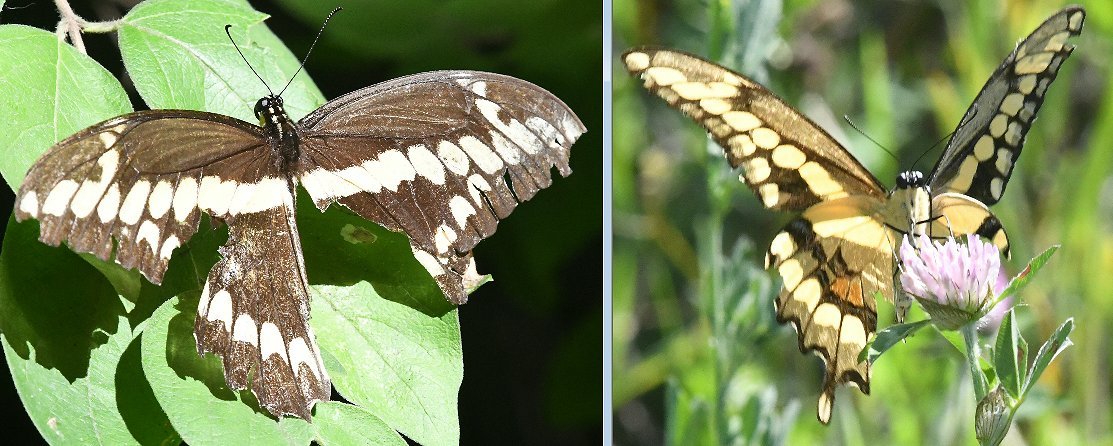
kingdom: Animalia
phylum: Arthropoda
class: Insecta
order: Lepidoptera
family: Papilionidae
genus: Papilio
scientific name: Papilio cresphontes
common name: Eastern Giant Swallowtail
